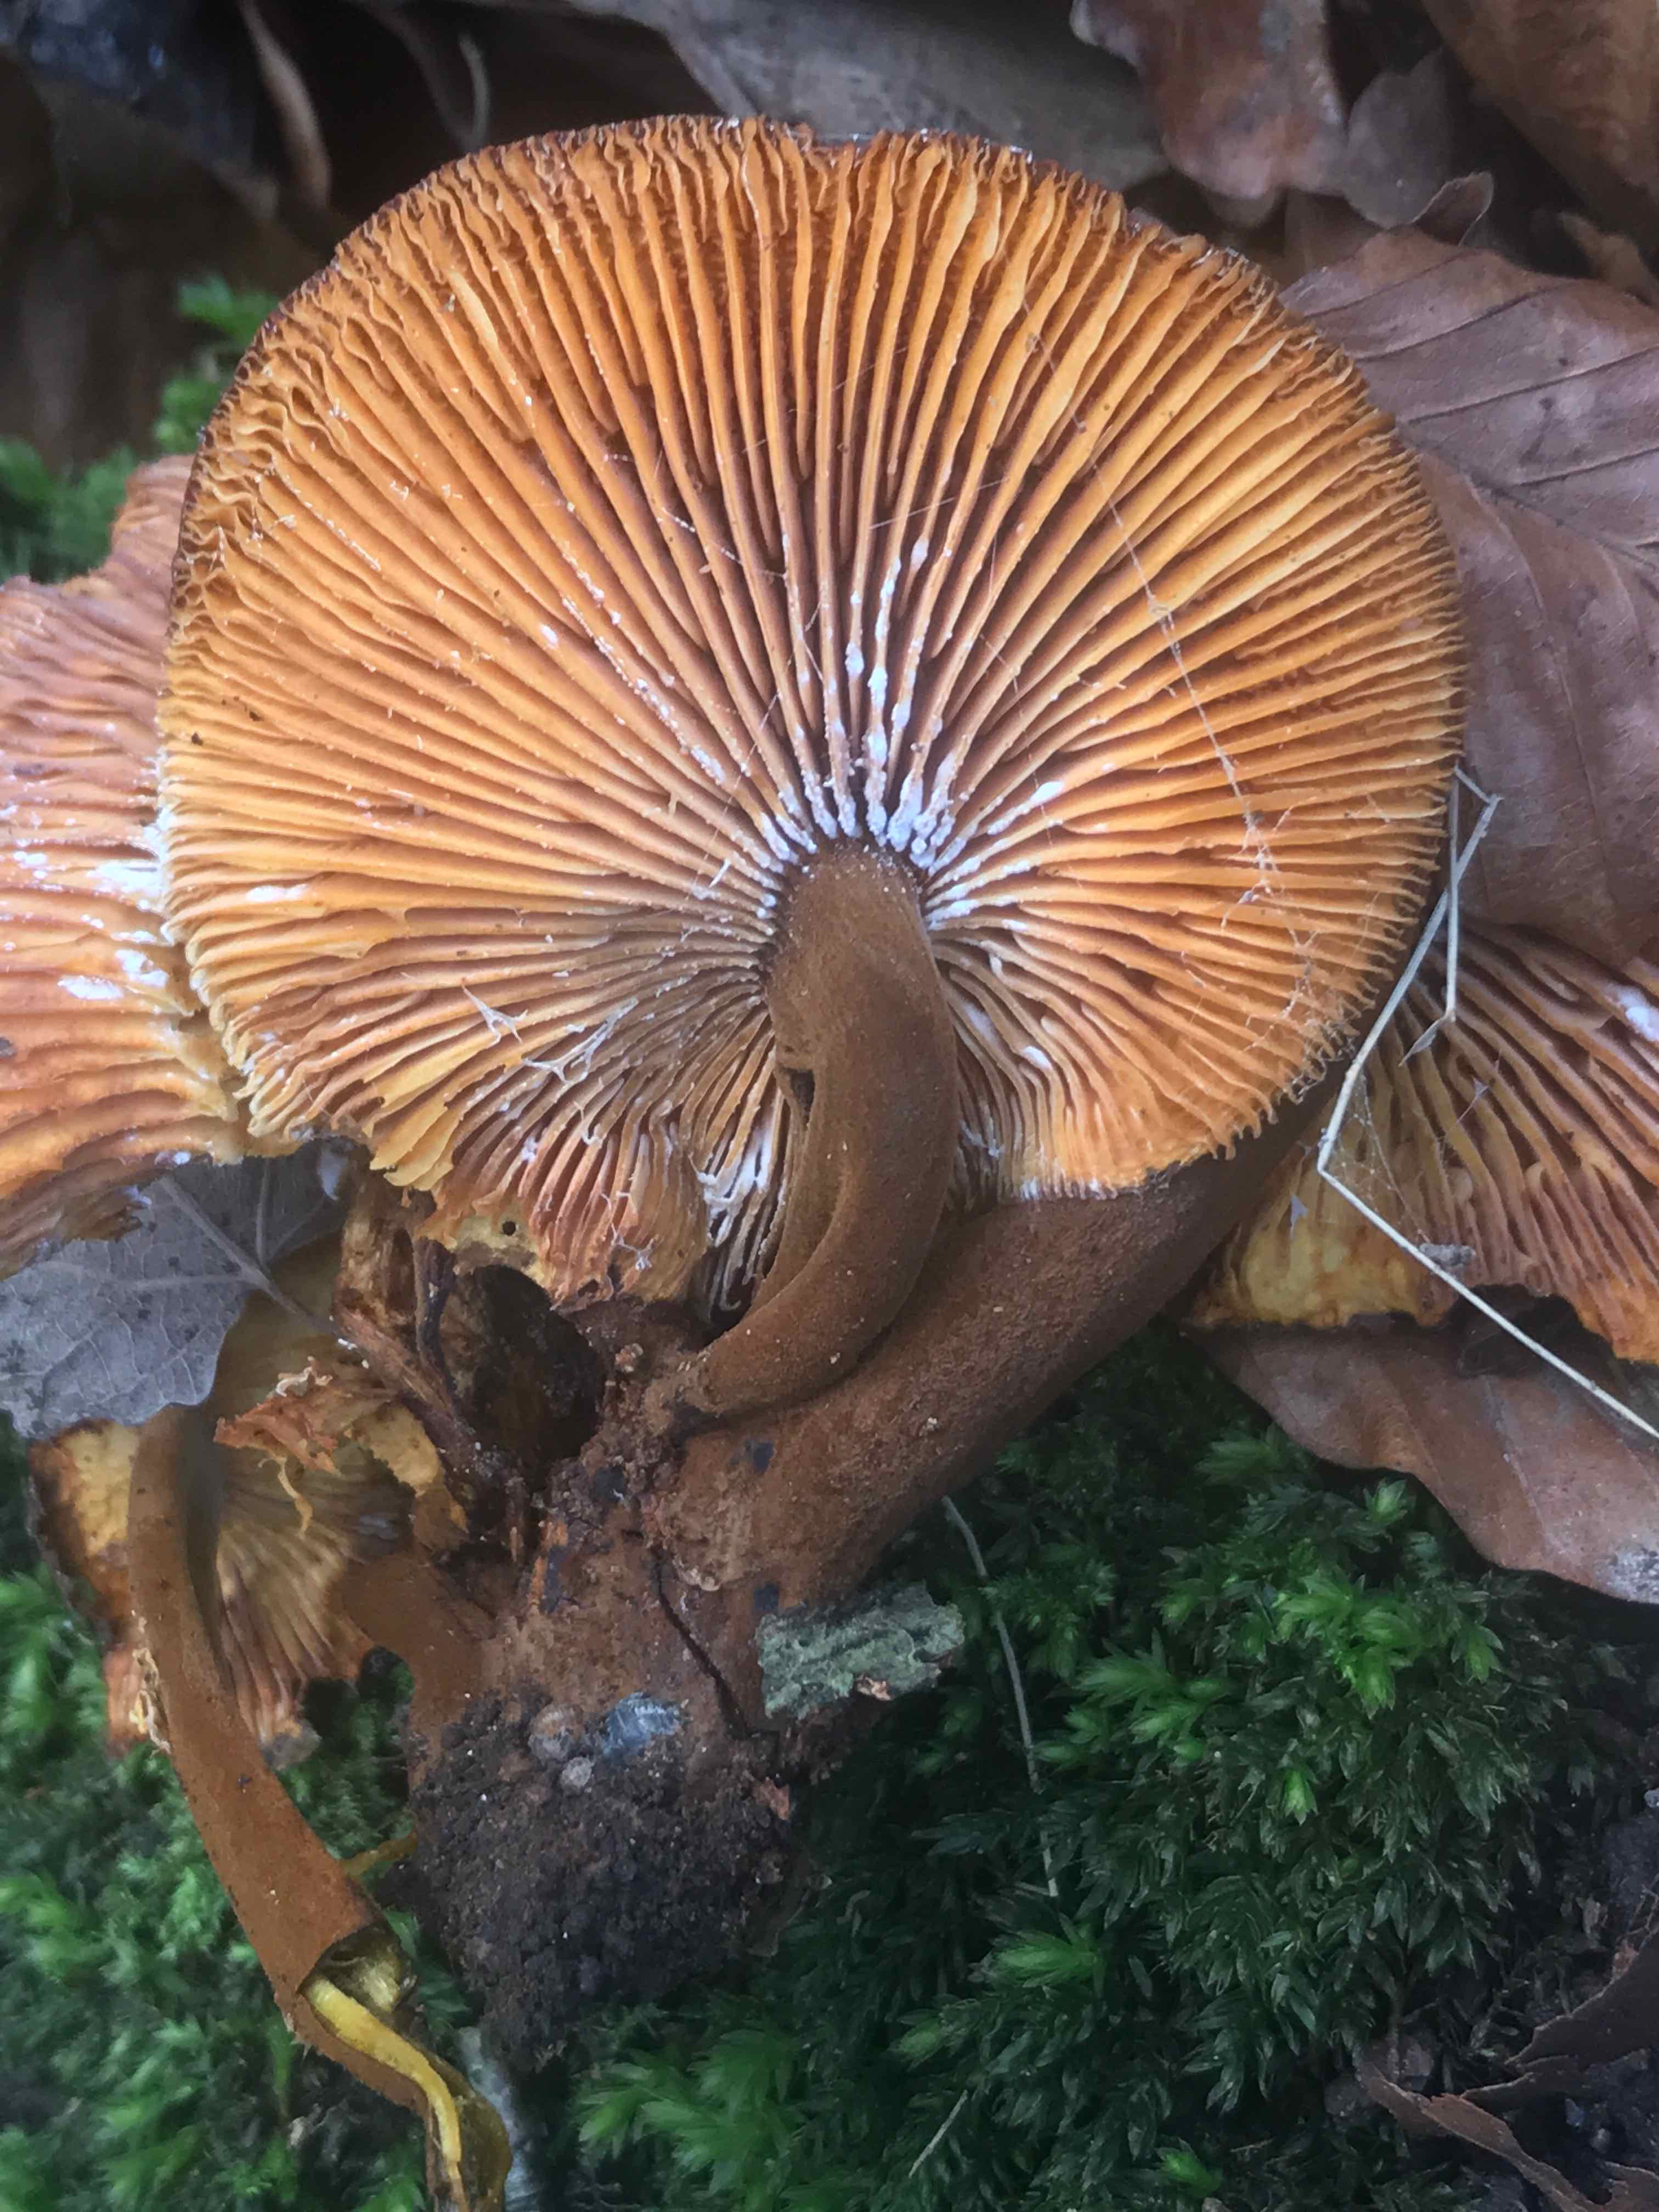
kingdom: Fungi
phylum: Basidiomycota
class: Agaricomycetes
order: Agaricales
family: Physalacriaceae
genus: Flammulina
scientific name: Flammulina velutipes
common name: gul fløjlsfod
